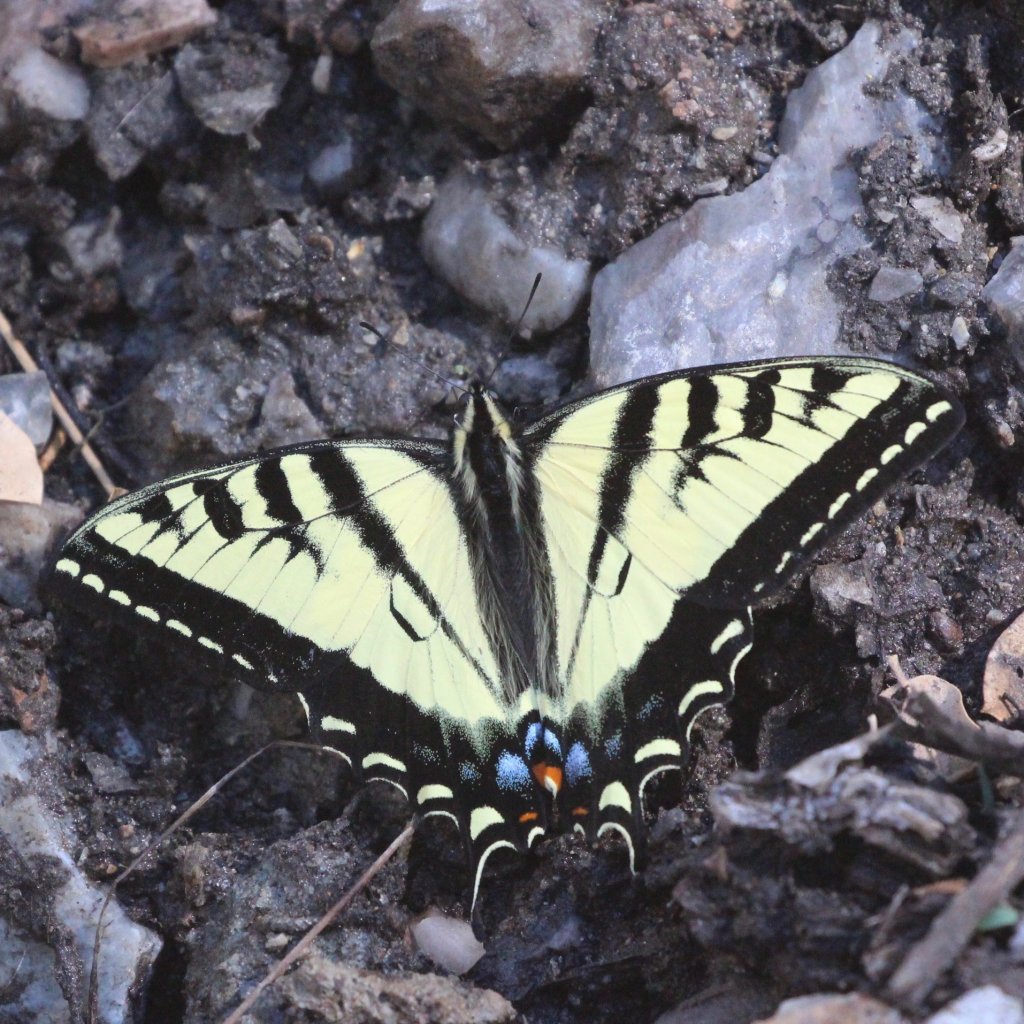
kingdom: Animalia
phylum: Arthropoda
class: Insecta
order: Lepidoptera
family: Papilionidae
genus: Pterourus
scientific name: Pterourus rutulus
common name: Western Tiger Swallowtail
